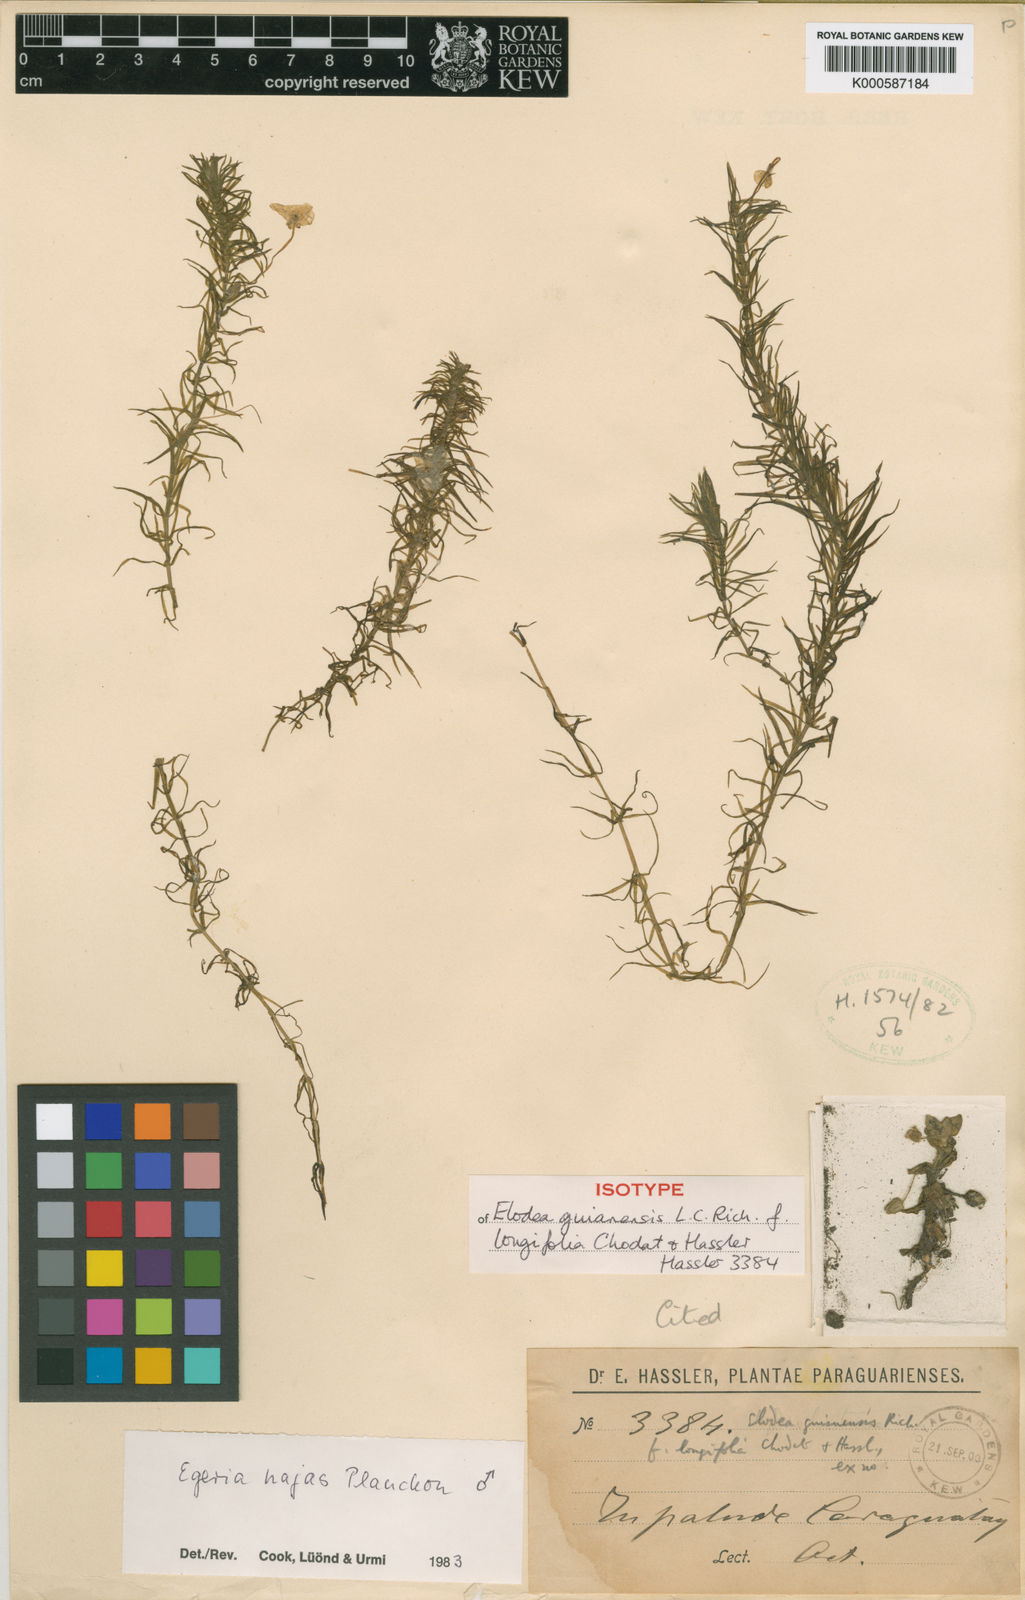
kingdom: Plantae
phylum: Tracheophyta
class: Liliopsida
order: Alismatales
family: Hydrocharitaceae
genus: Elodea
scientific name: Elodea najas
